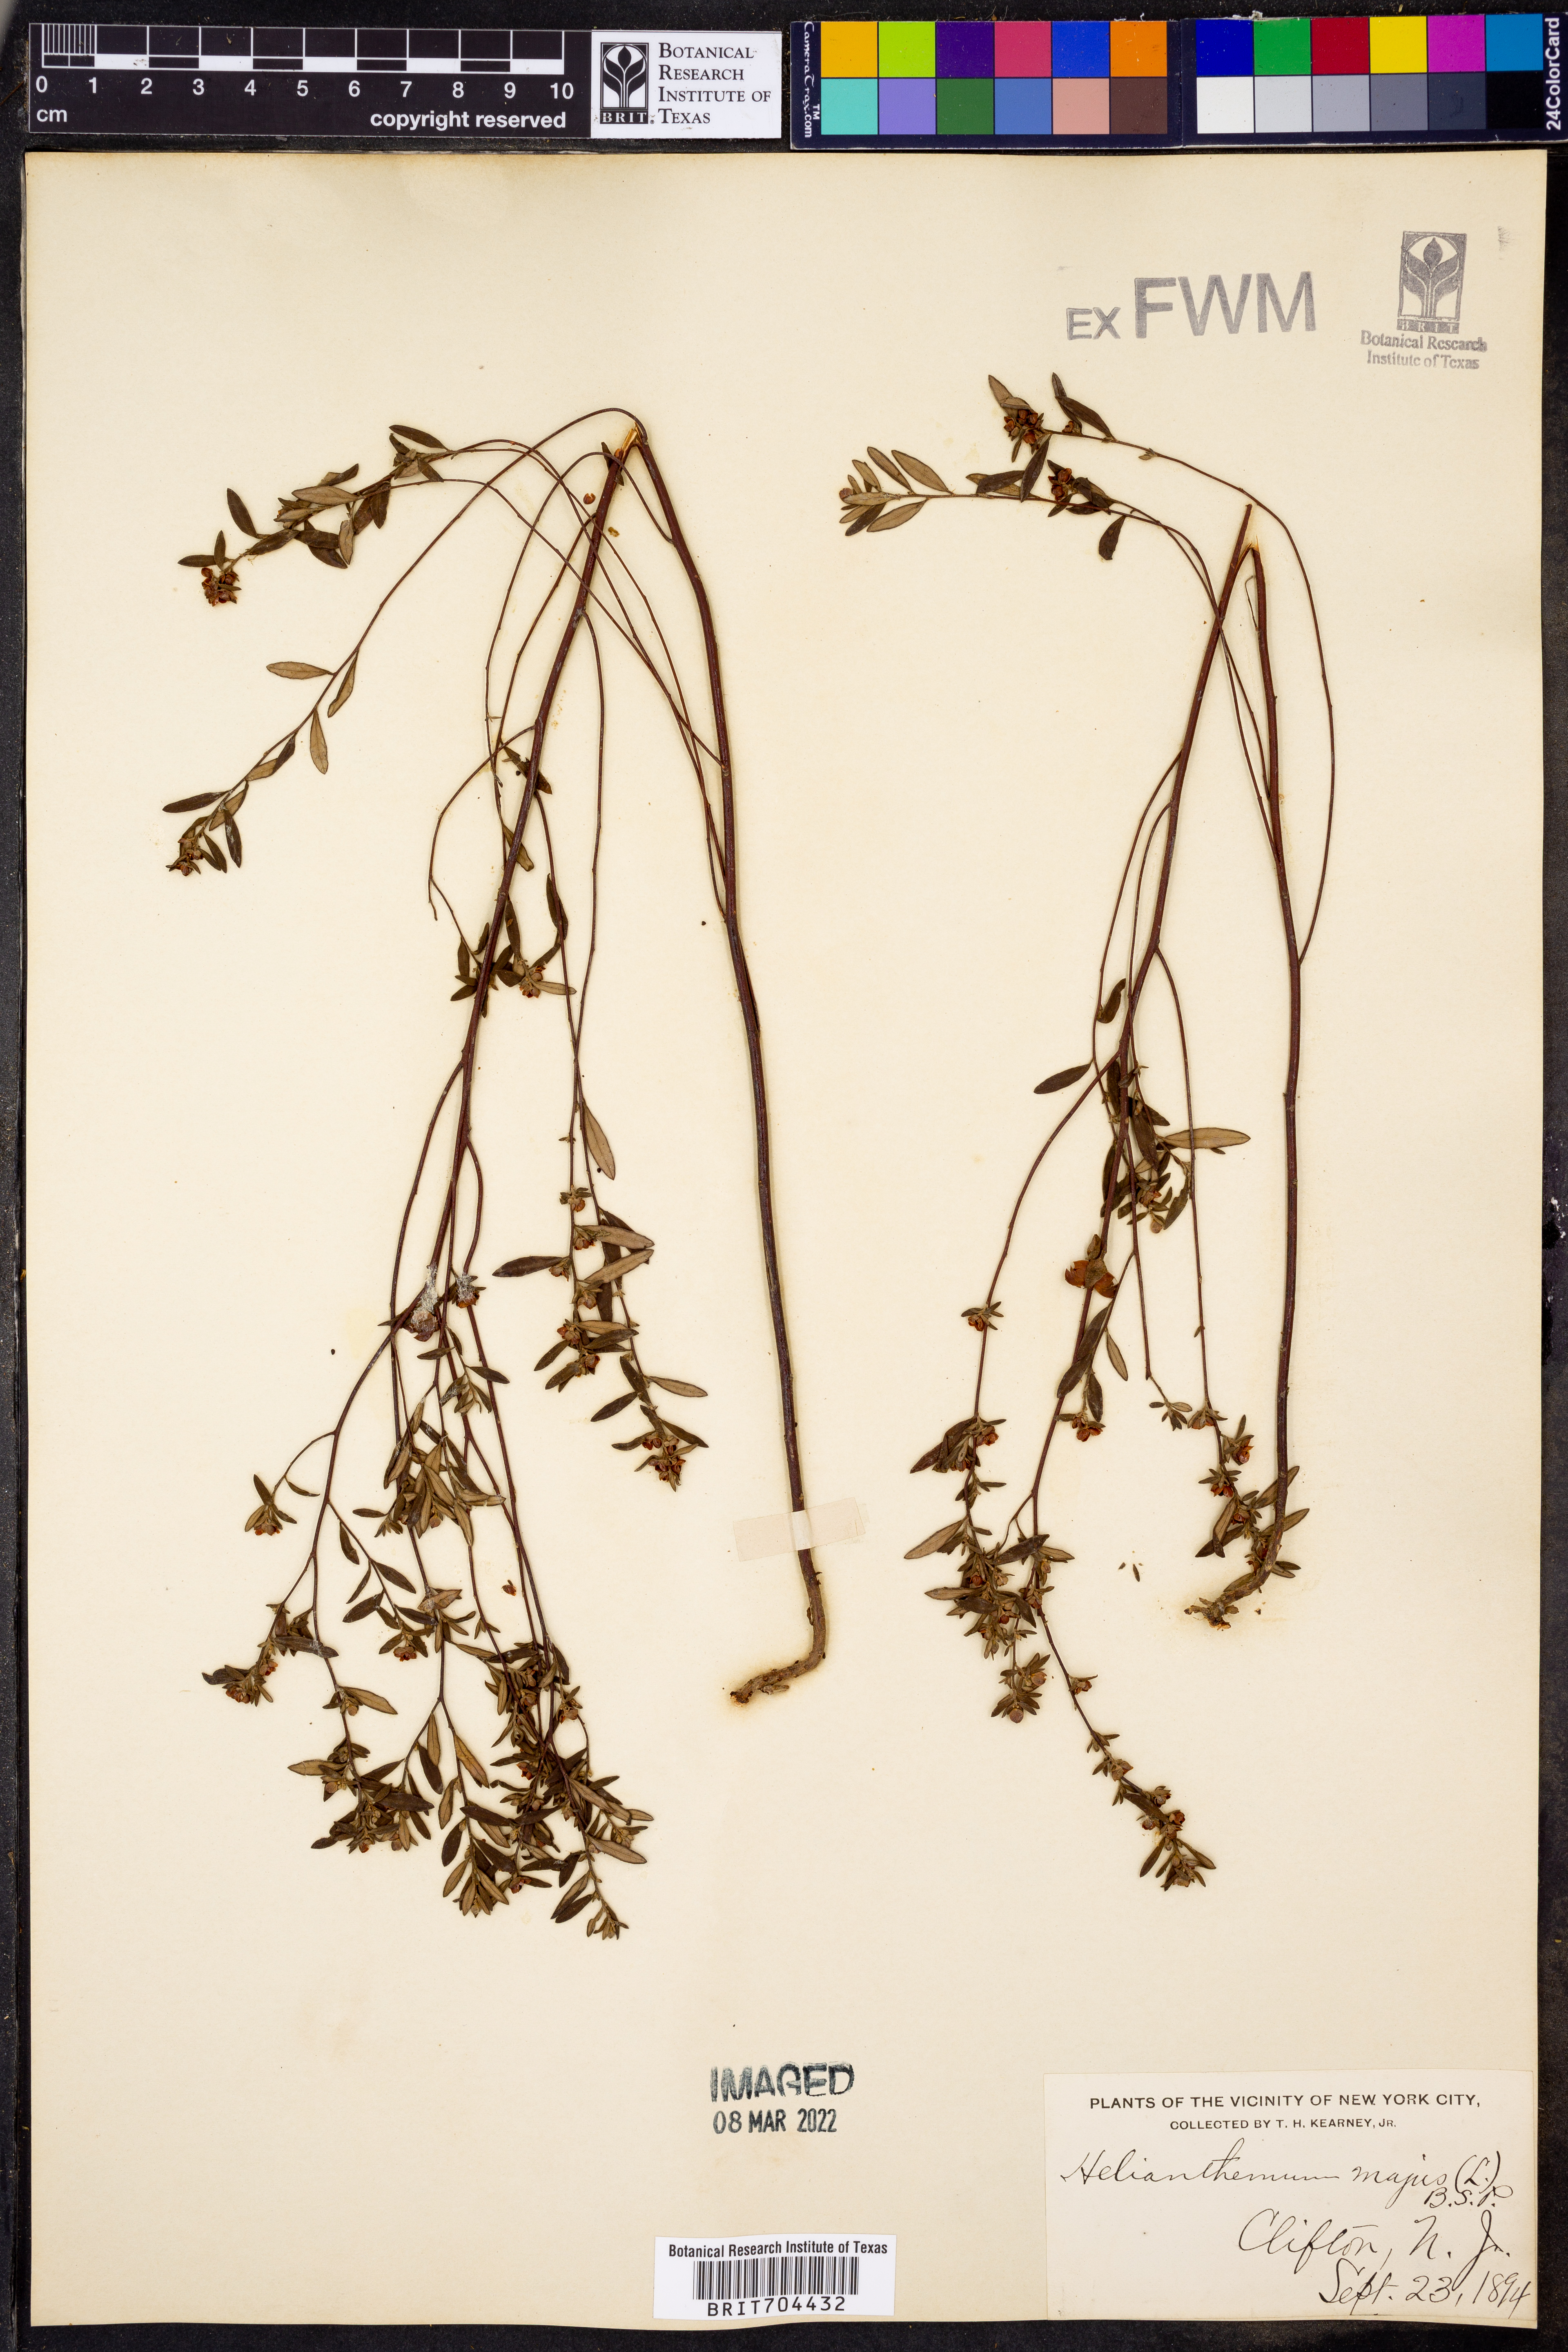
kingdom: Plantae
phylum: Tracheophyta
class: Magnoliopsida
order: Malvales
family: Cistaceae
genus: Helianthemum
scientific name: Helianthemum
